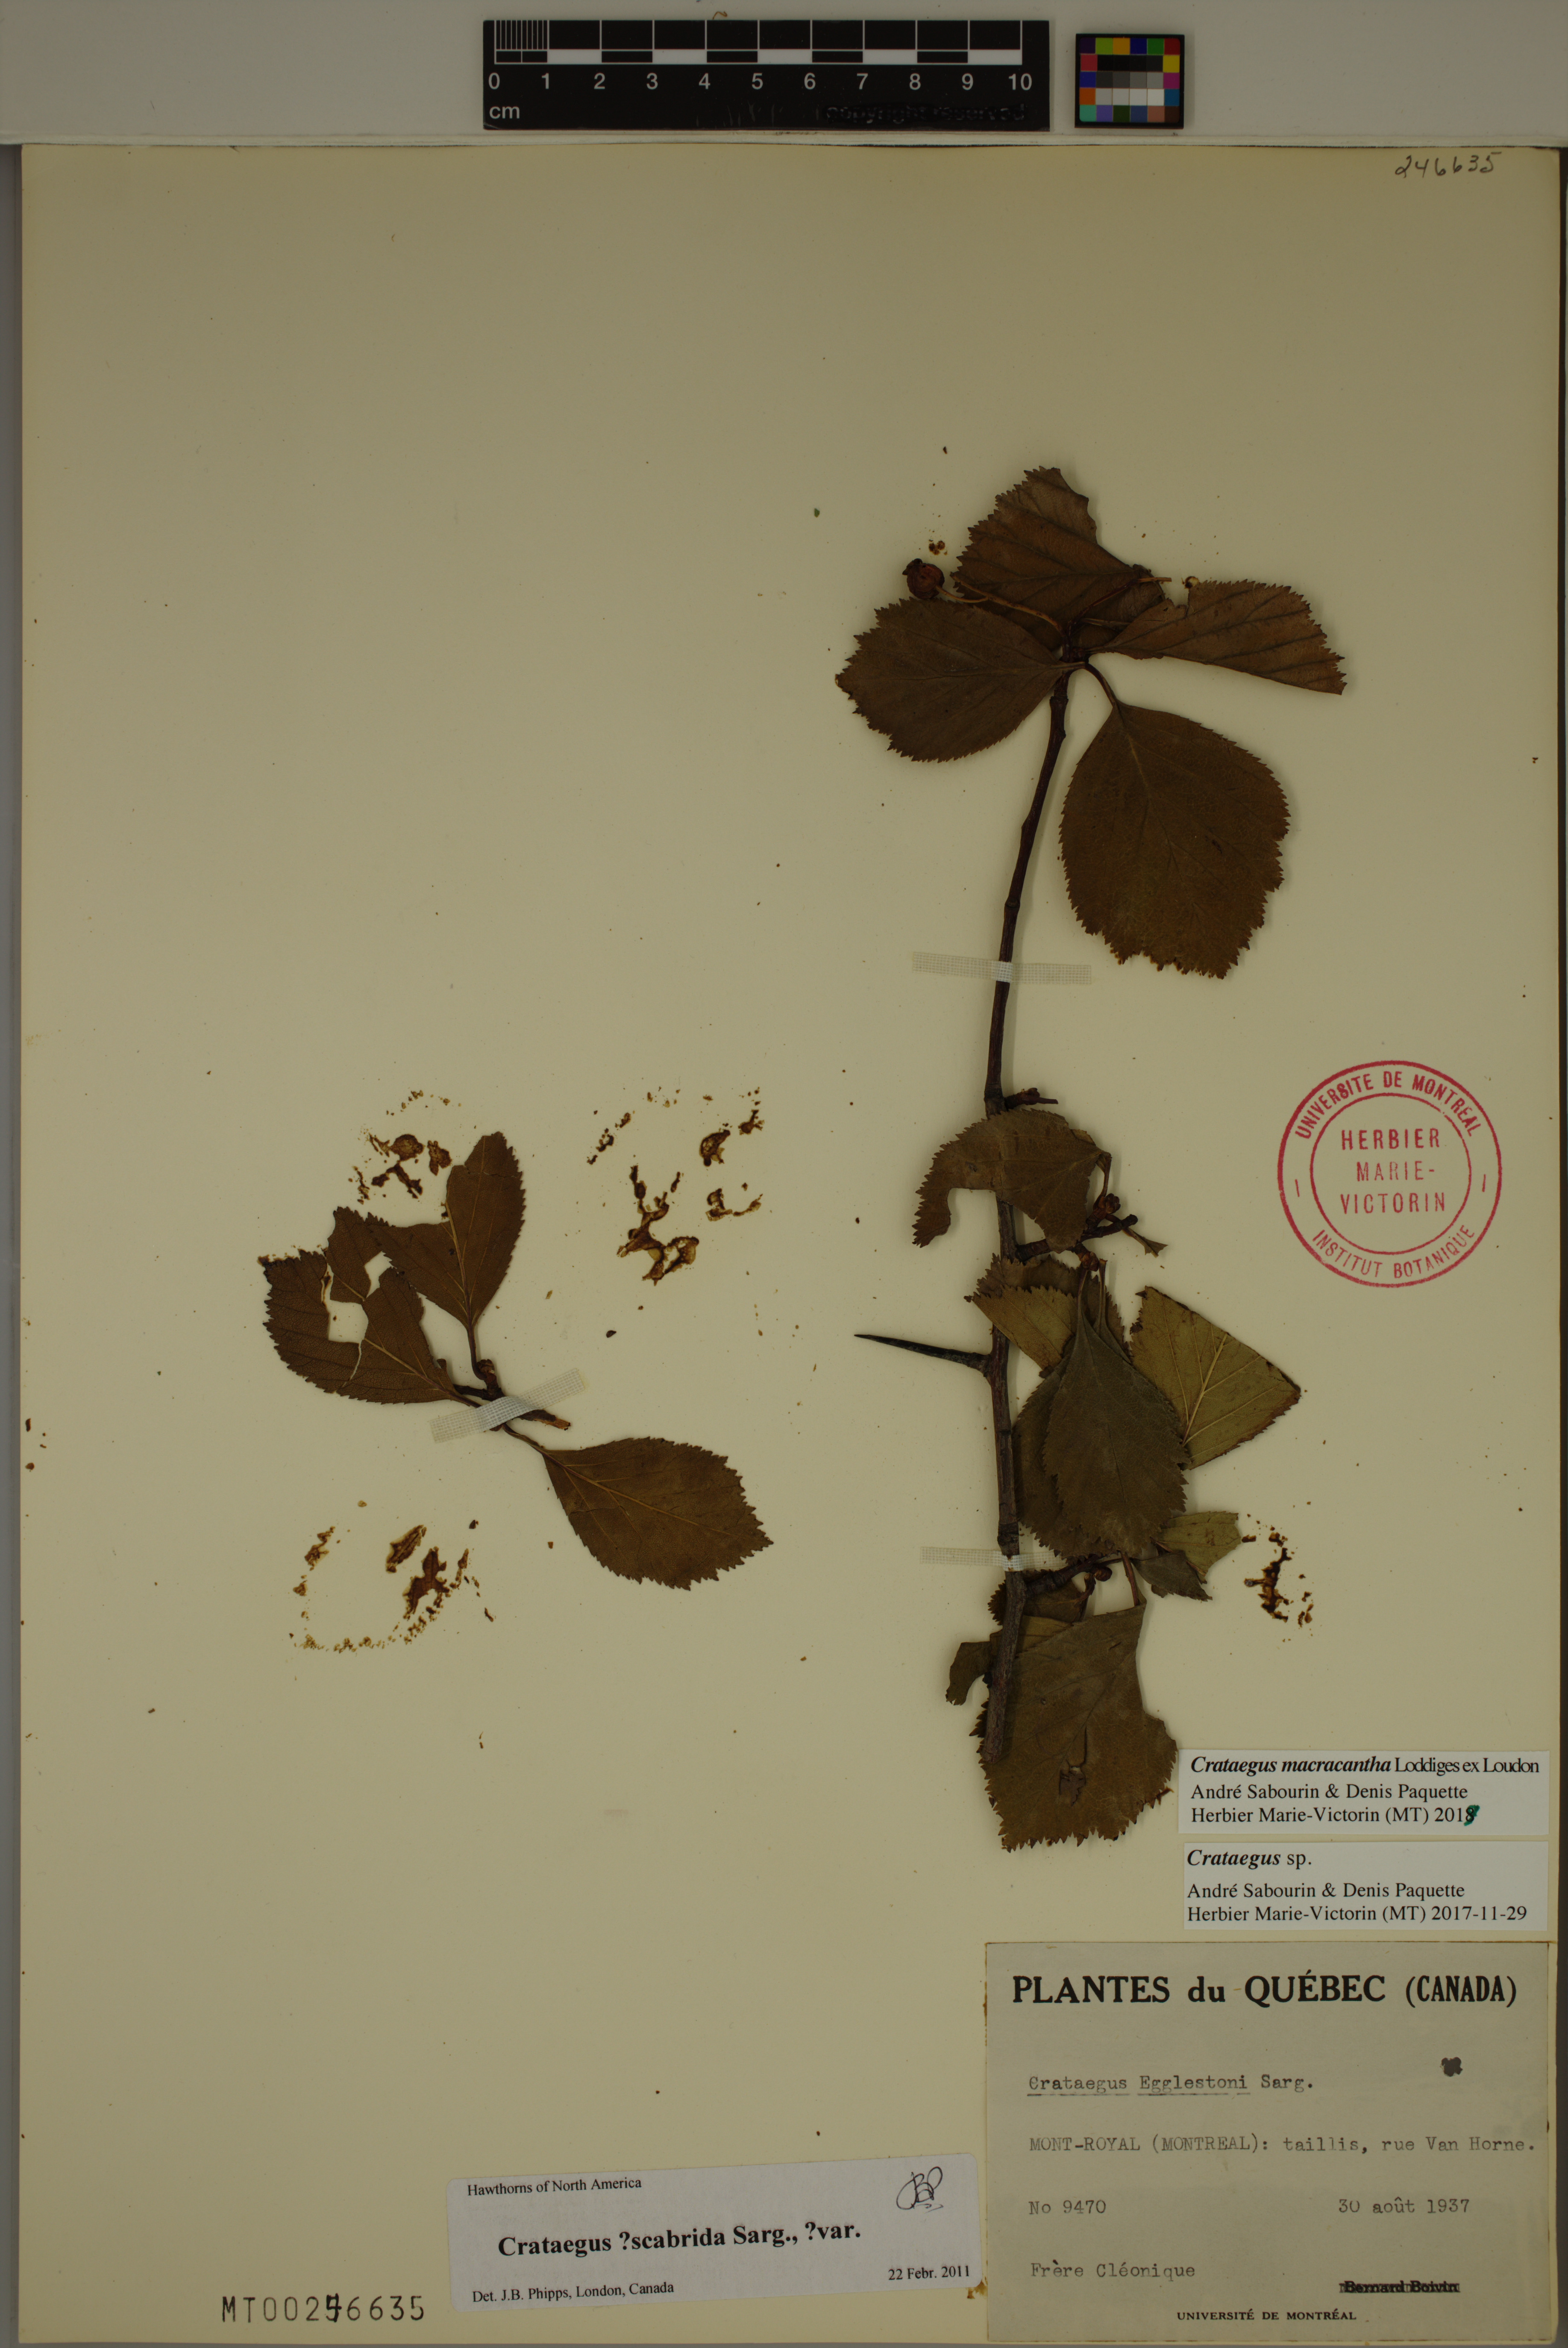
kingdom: Plantae
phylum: Tracheophyta
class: Magnoliopsida
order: Rosales
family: Rosaceae
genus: Crataegus
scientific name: Crataegus macracantha
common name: Large-thorn hawthorn
